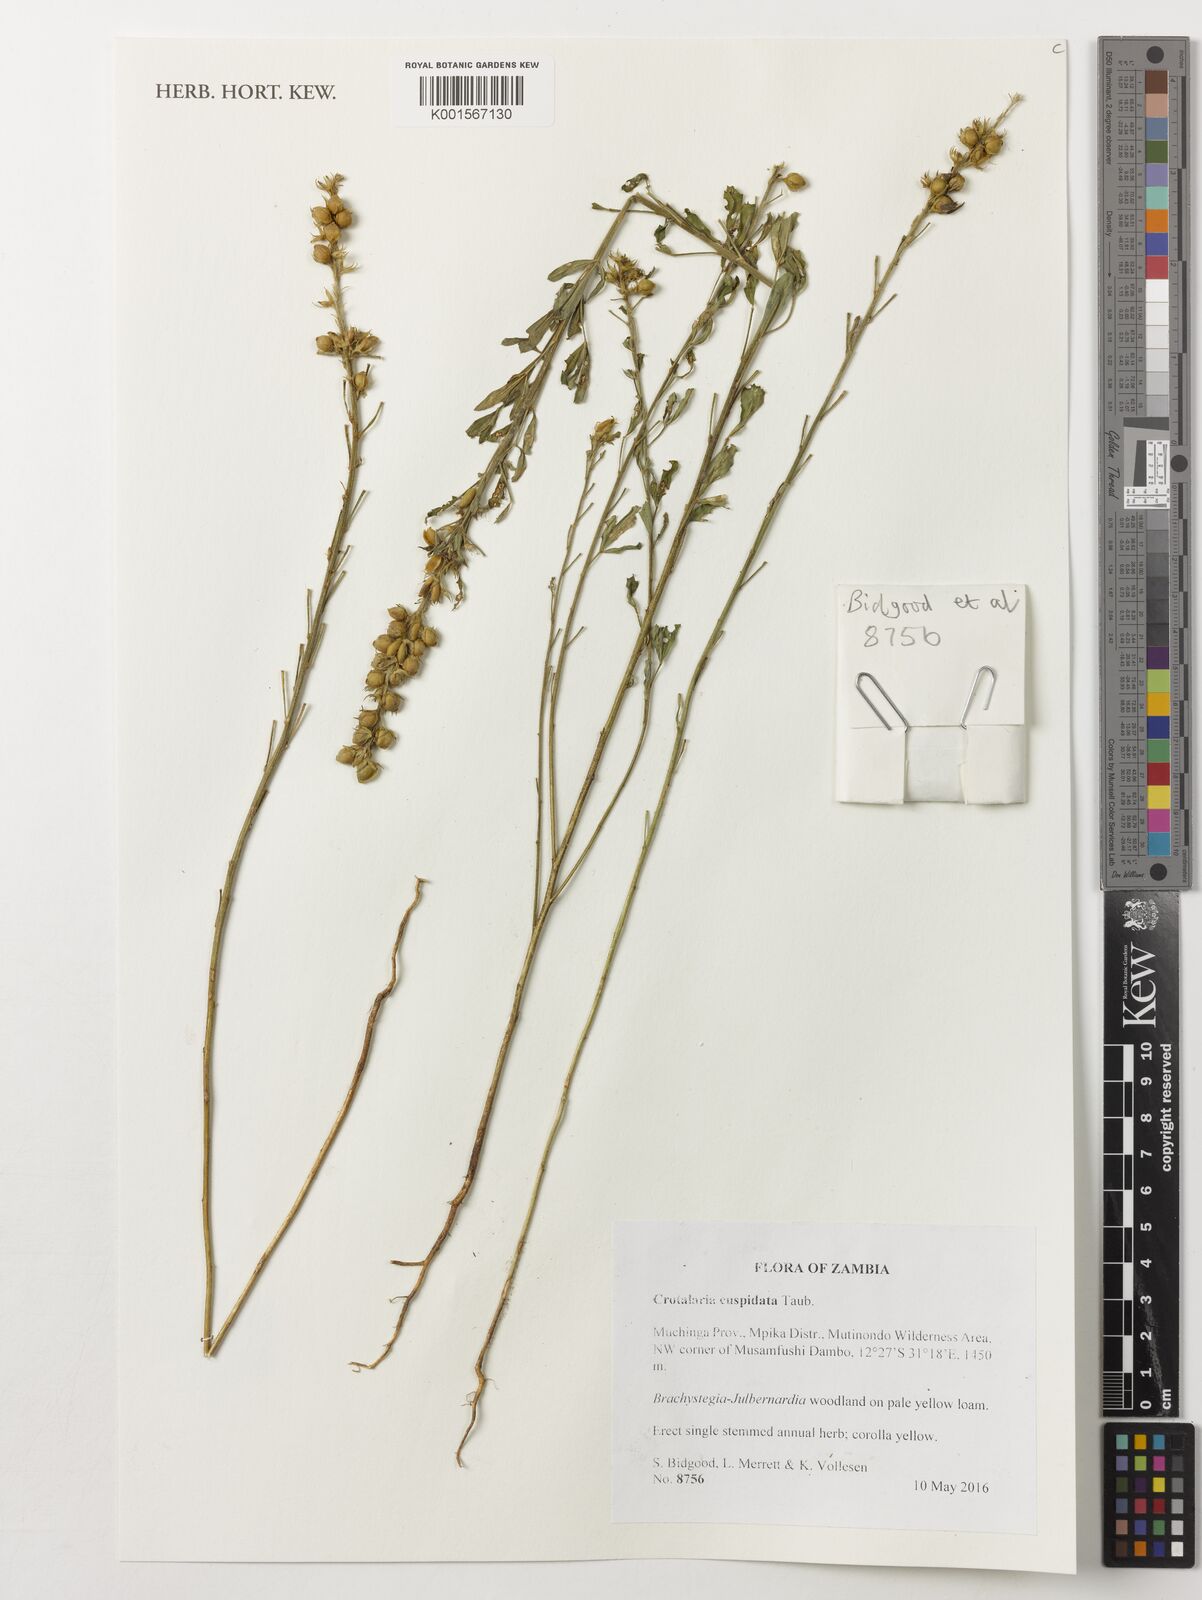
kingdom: Plantae
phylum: Tracheophyta
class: Magnoliopsida
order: Fabales
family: Fabaceae
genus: Crotalaria
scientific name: Crotalaria cuspidata
